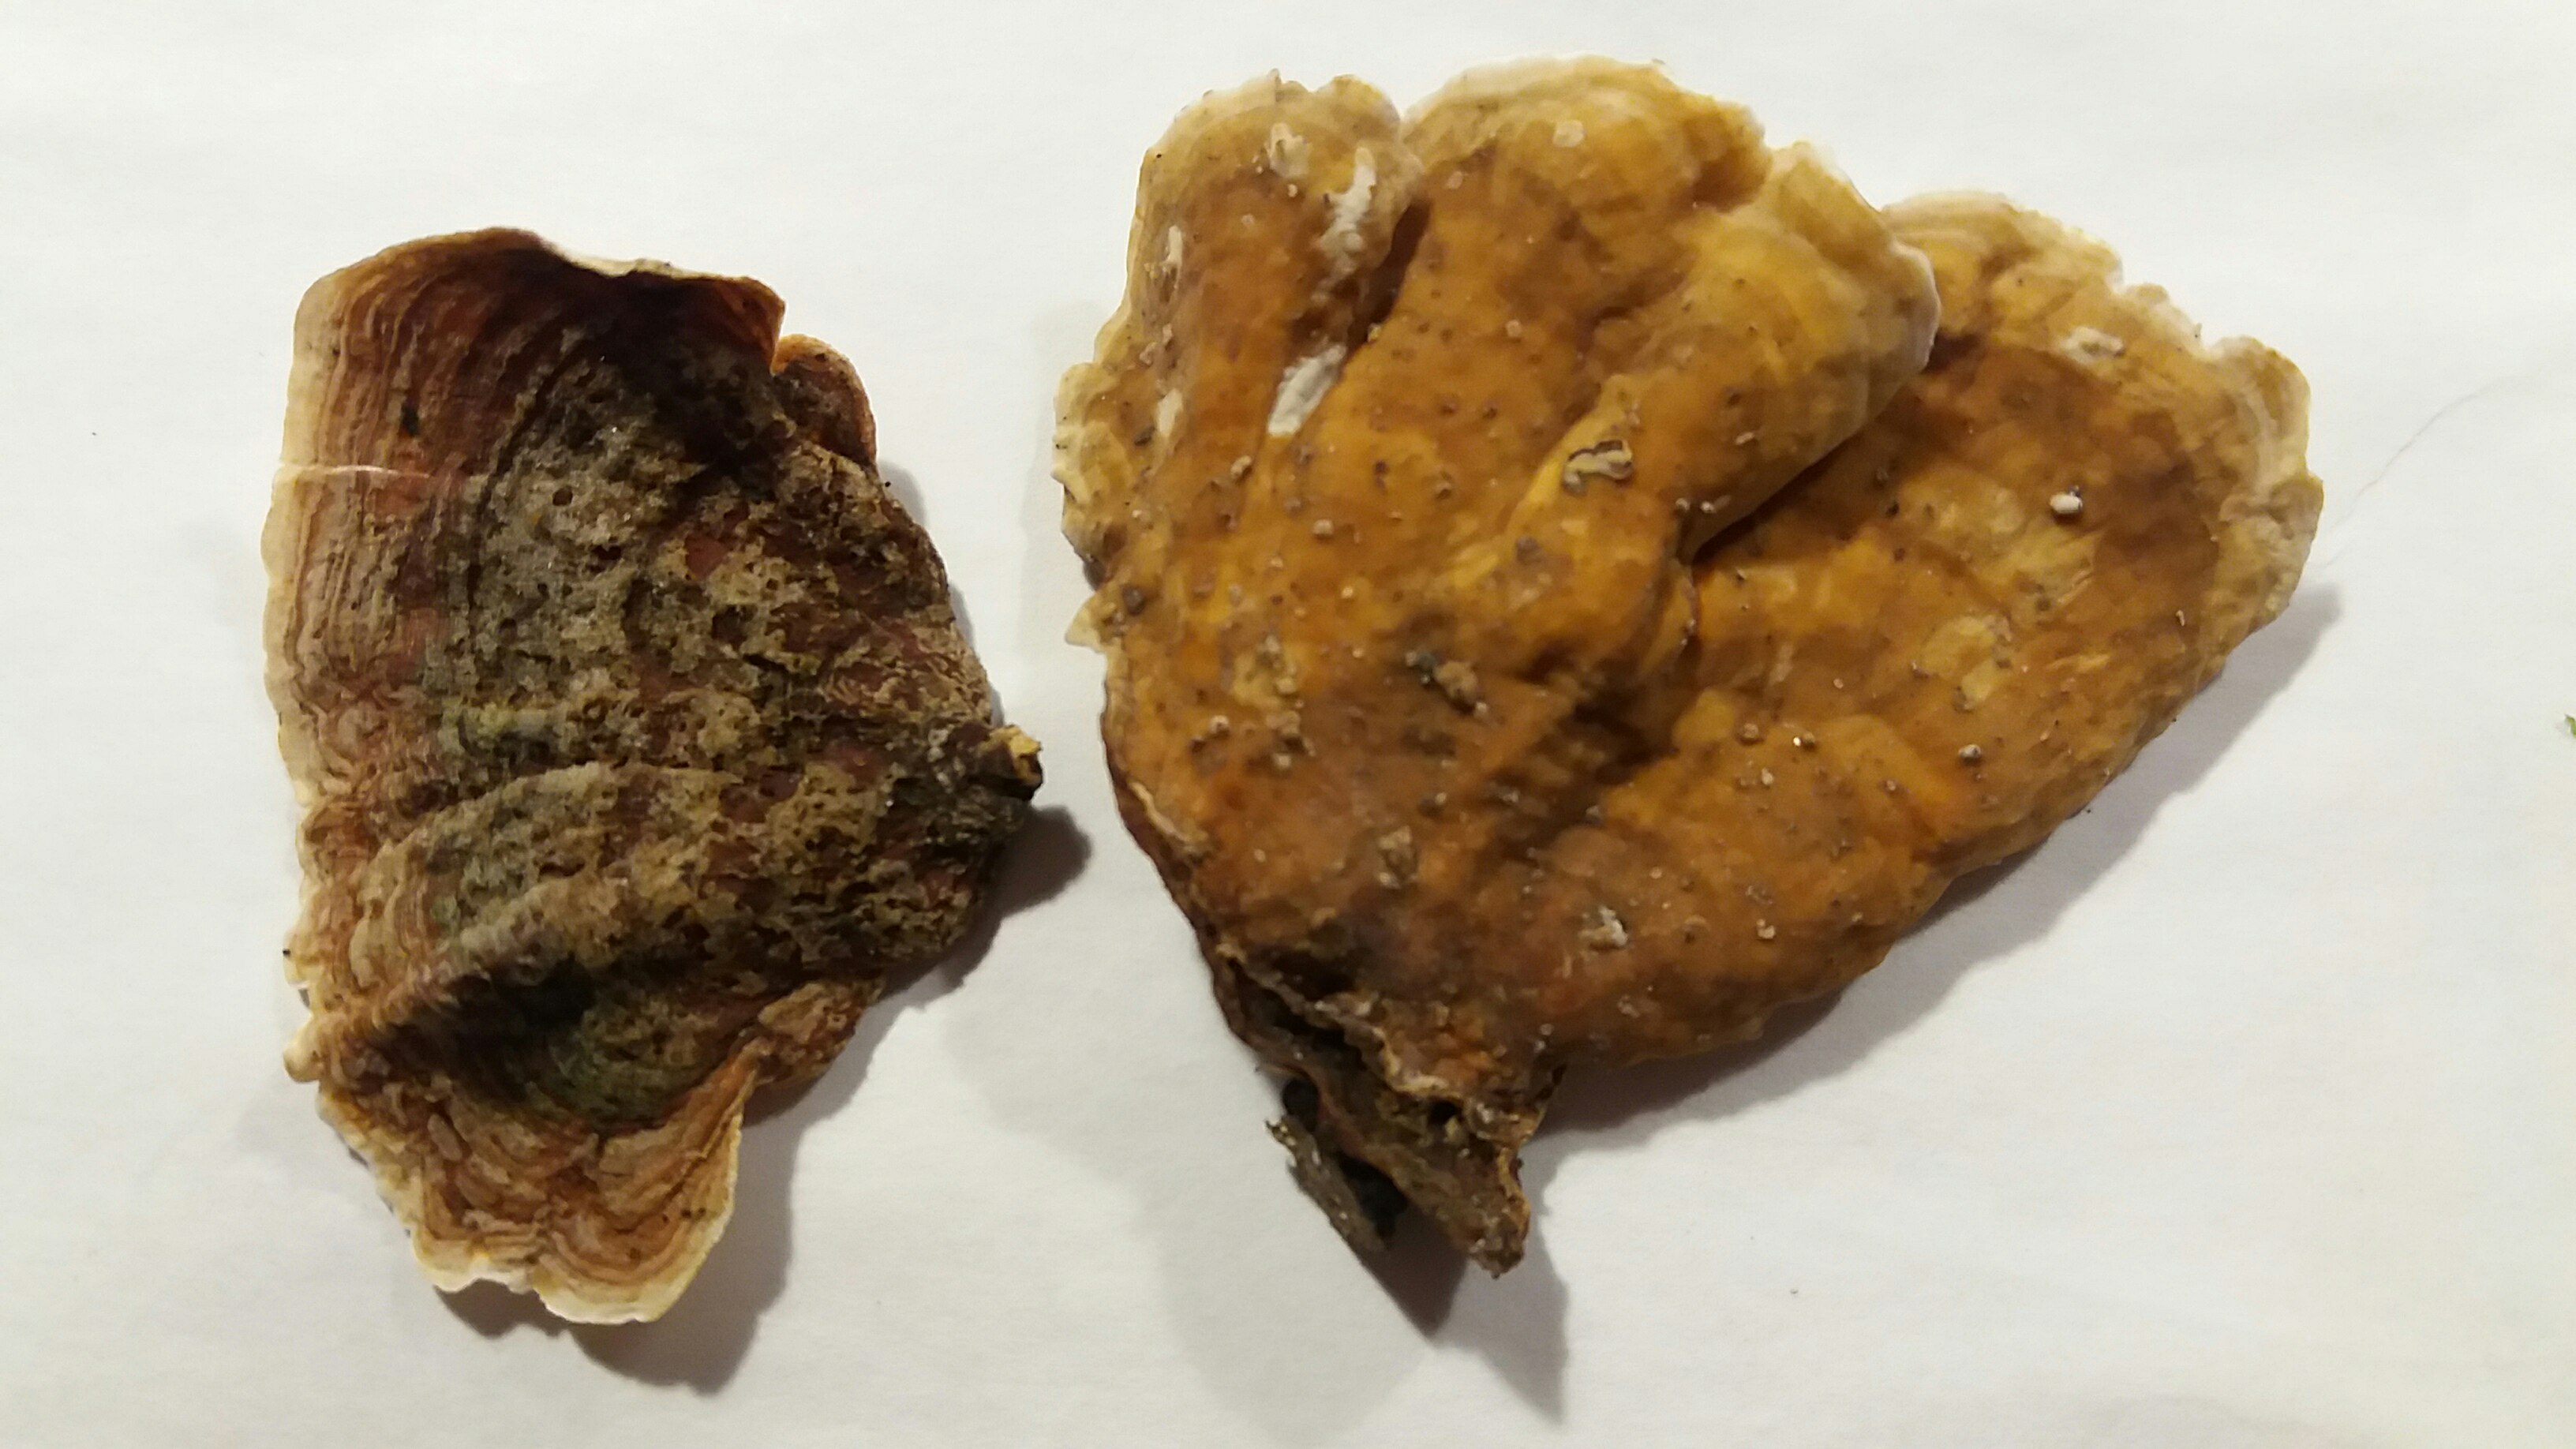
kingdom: Fungi
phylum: Basidiomycota
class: Agaricomycetes
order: Russulales
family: Stereaceae
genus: Stereum
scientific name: Stereum subtomentosum
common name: smuk lædersvamp
